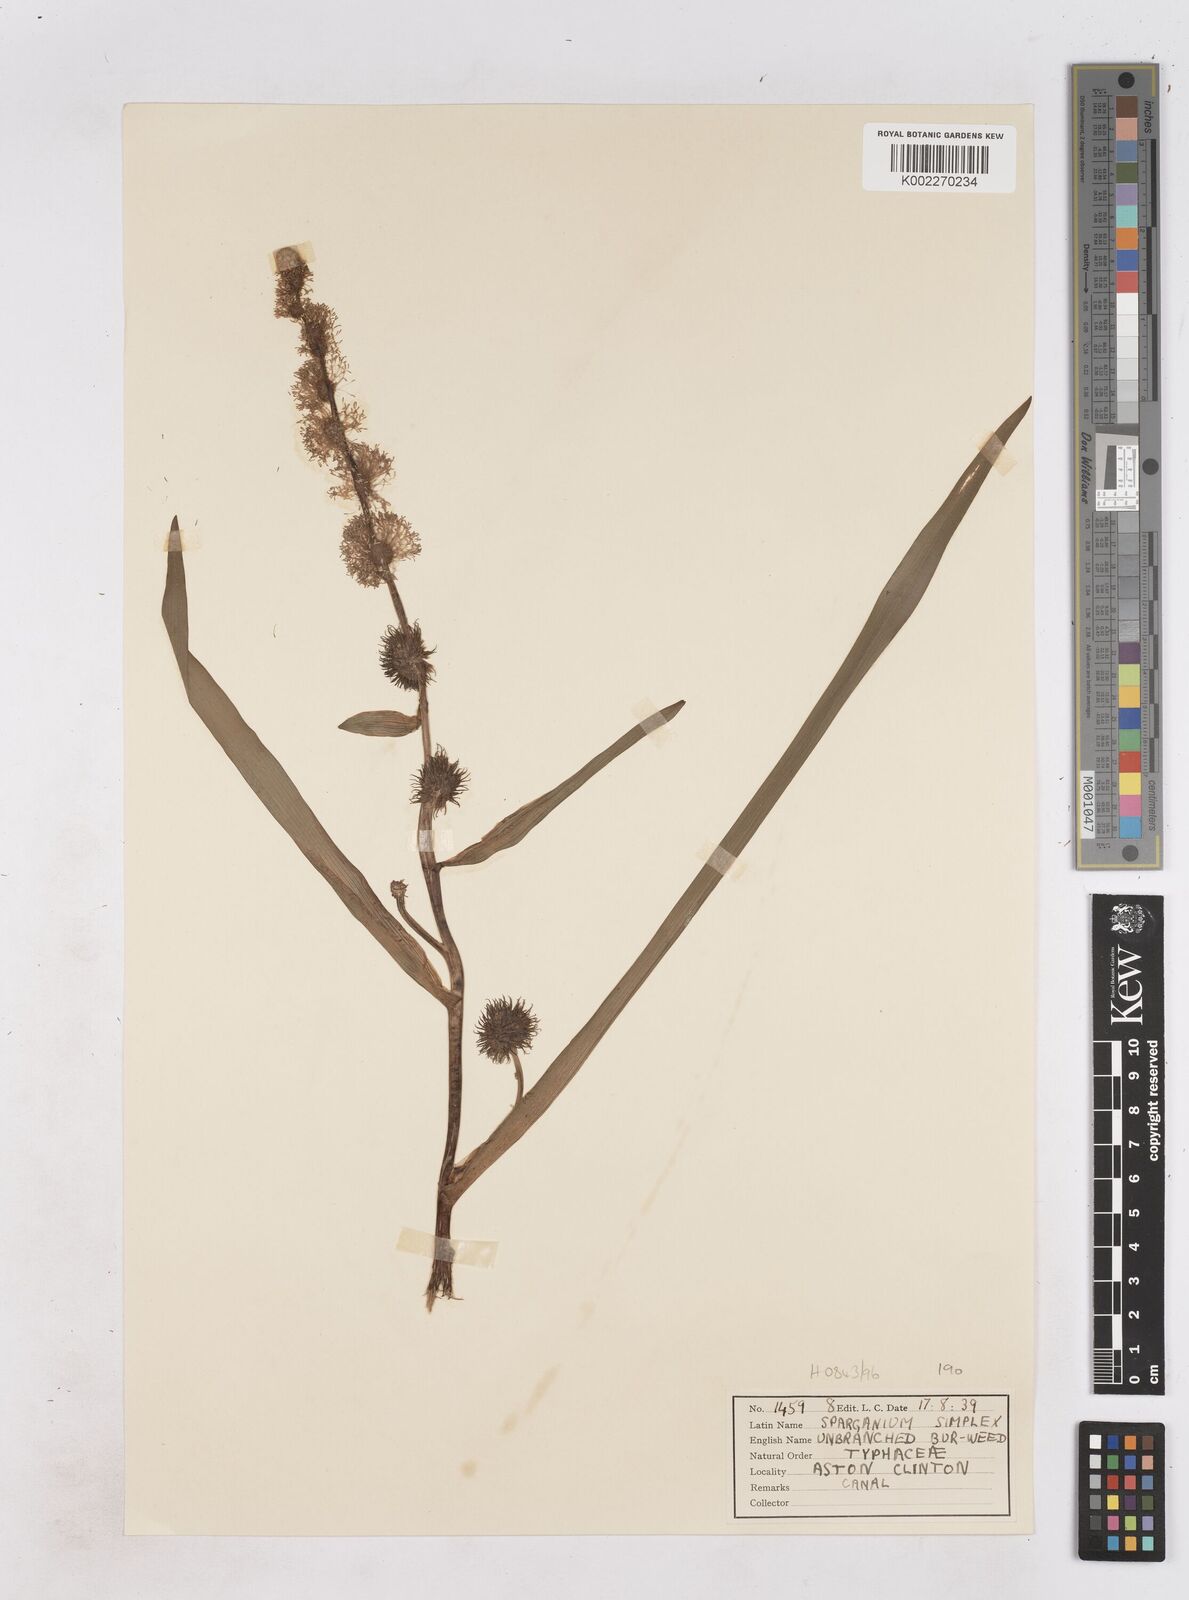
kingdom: Plantae
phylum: Tracheophyta
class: Liliopsida
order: Poales
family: Typhaceae
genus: Sparganium
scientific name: Sparganium emersum
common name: Unbranched bur-reed
